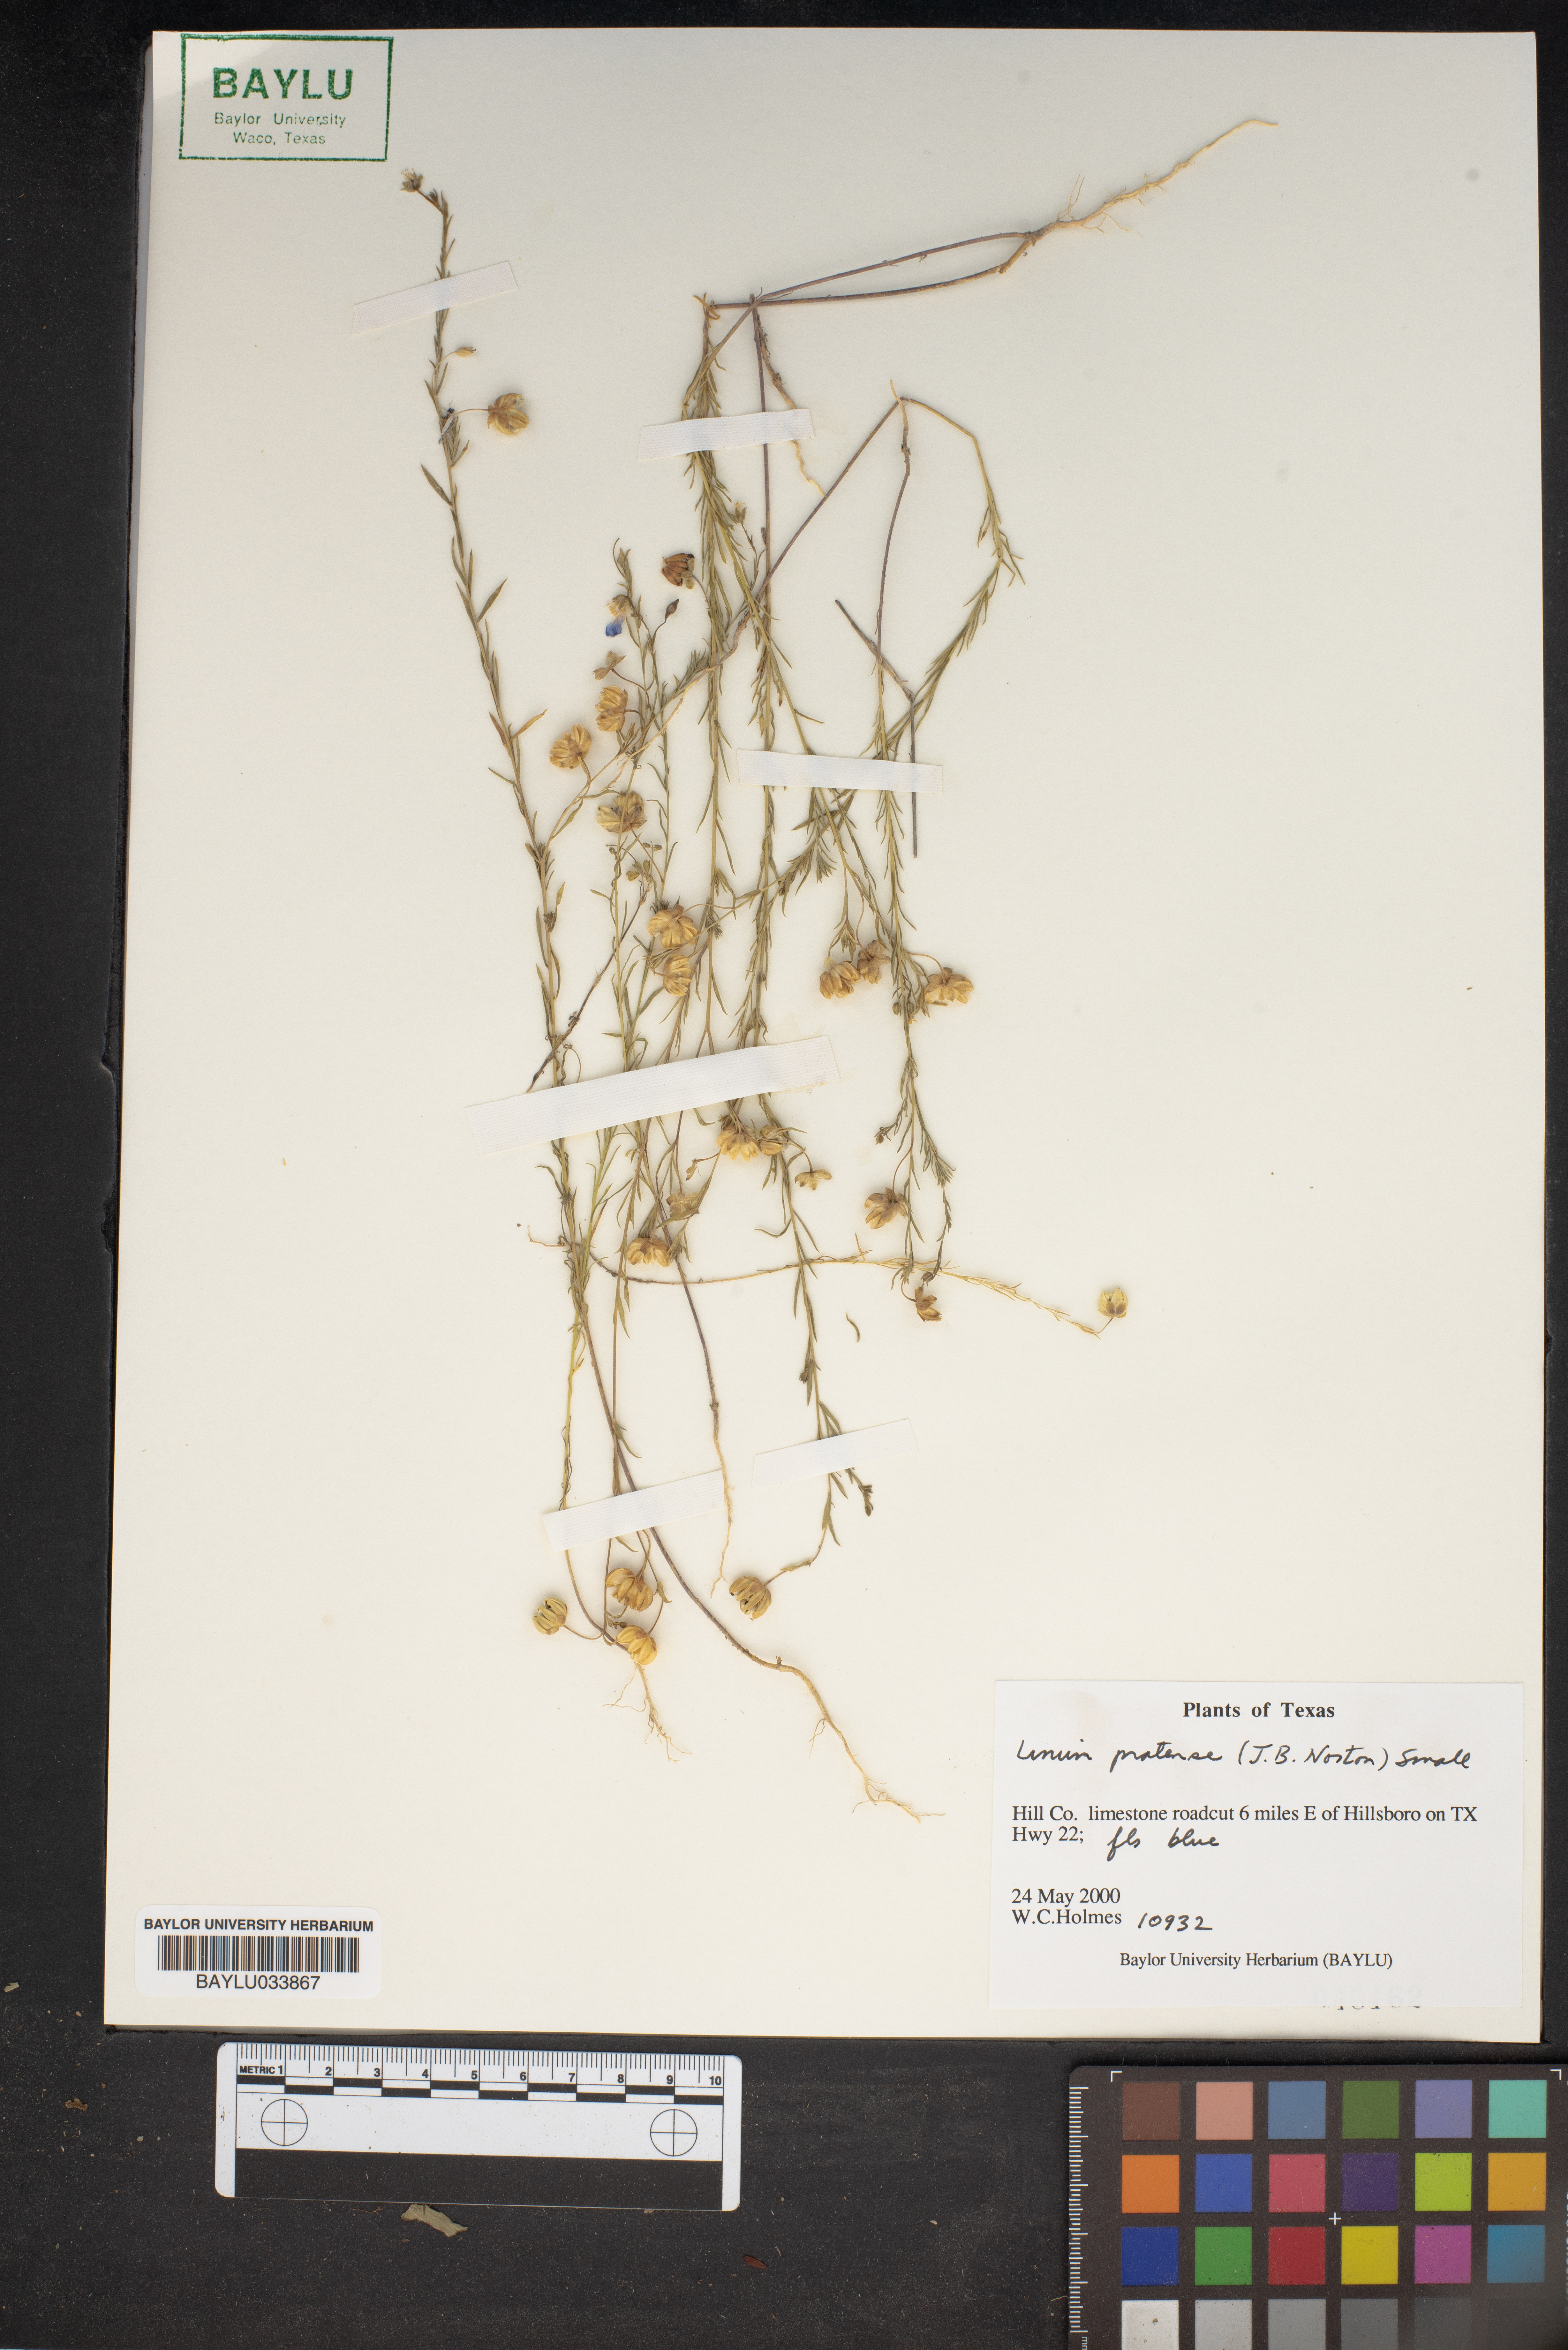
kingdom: Plantae
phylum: Tracheophyta
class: Magnoliopsida
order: Malpighiales
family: Linaceae
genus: Linum
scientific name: Linum pratense
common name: Norton's flax
